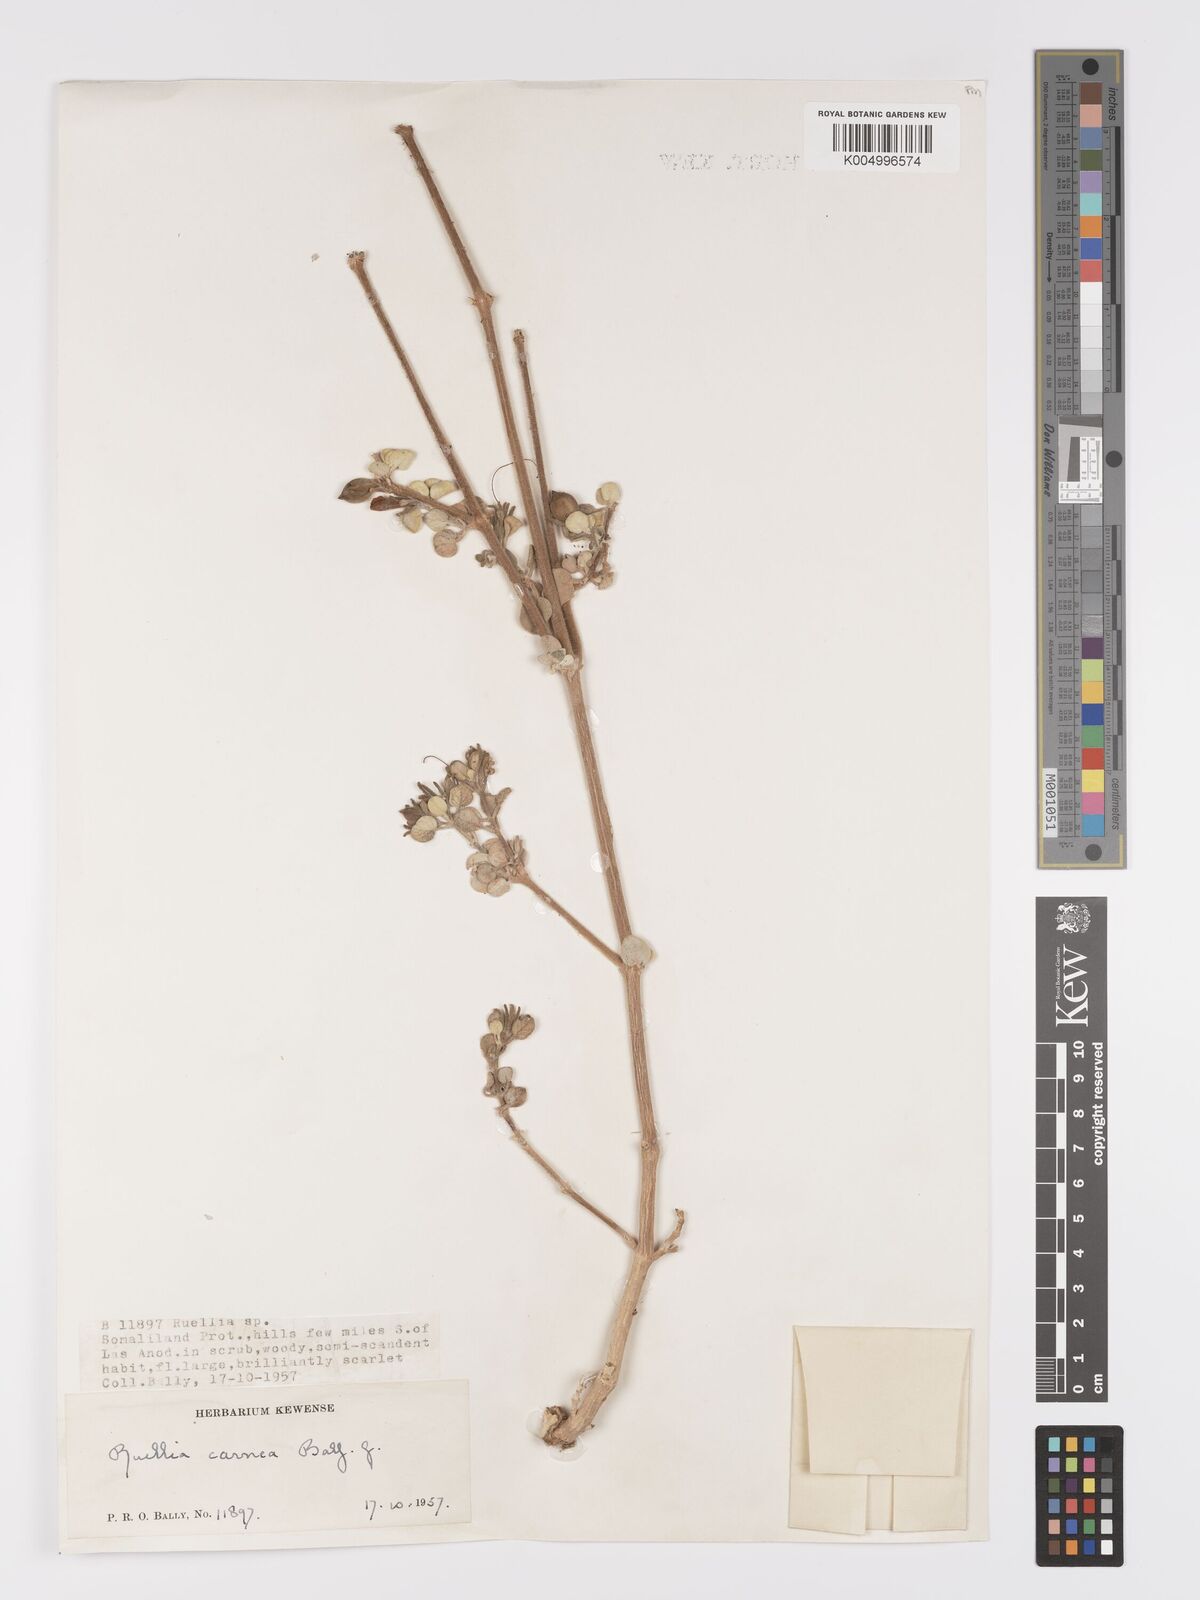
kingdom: Plantae
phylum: Tracheophyta
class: Magnoliopsida
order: Lamiales
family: Acanthaceae
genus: Ruellia
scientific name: Ruellia carnea
